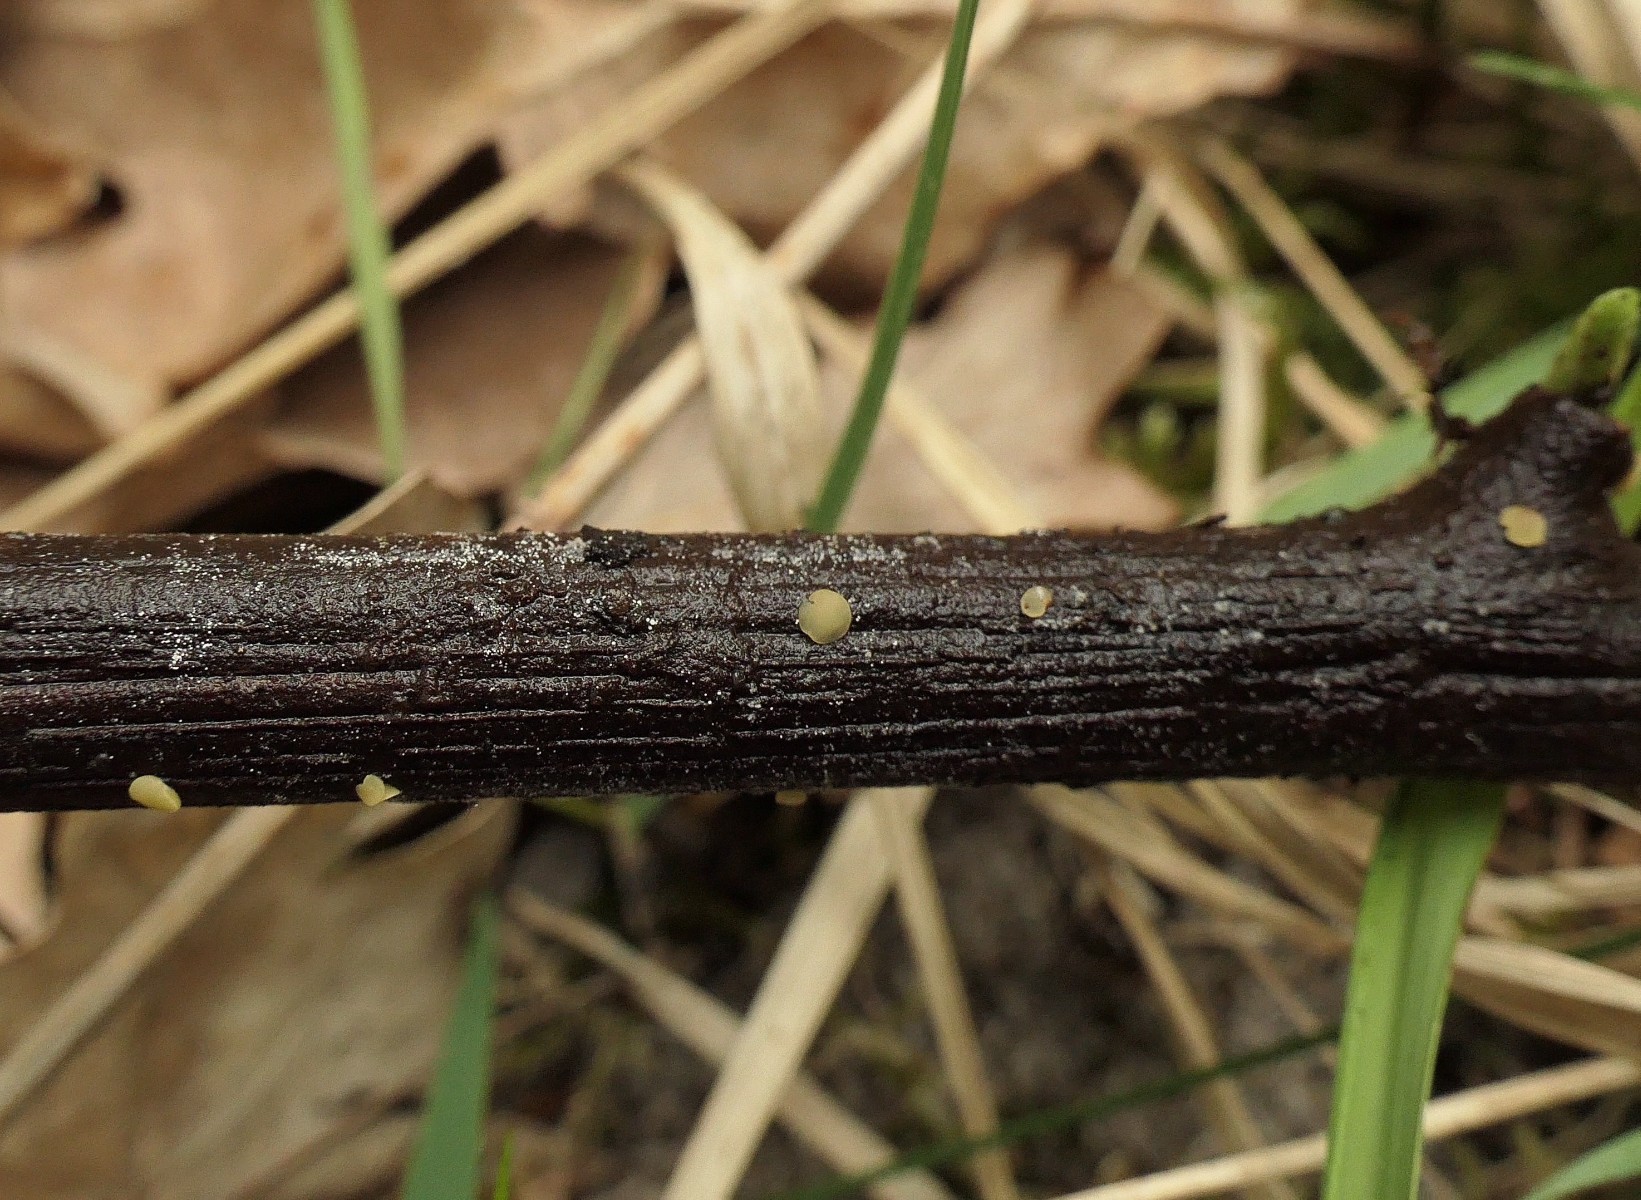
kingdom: Fungi
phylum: Ascomycota
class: Leotiomycetes
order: Helotiales
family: Helotiaceae
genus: Hymenoscyphus
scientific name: Hymenoscyphus imberbis
